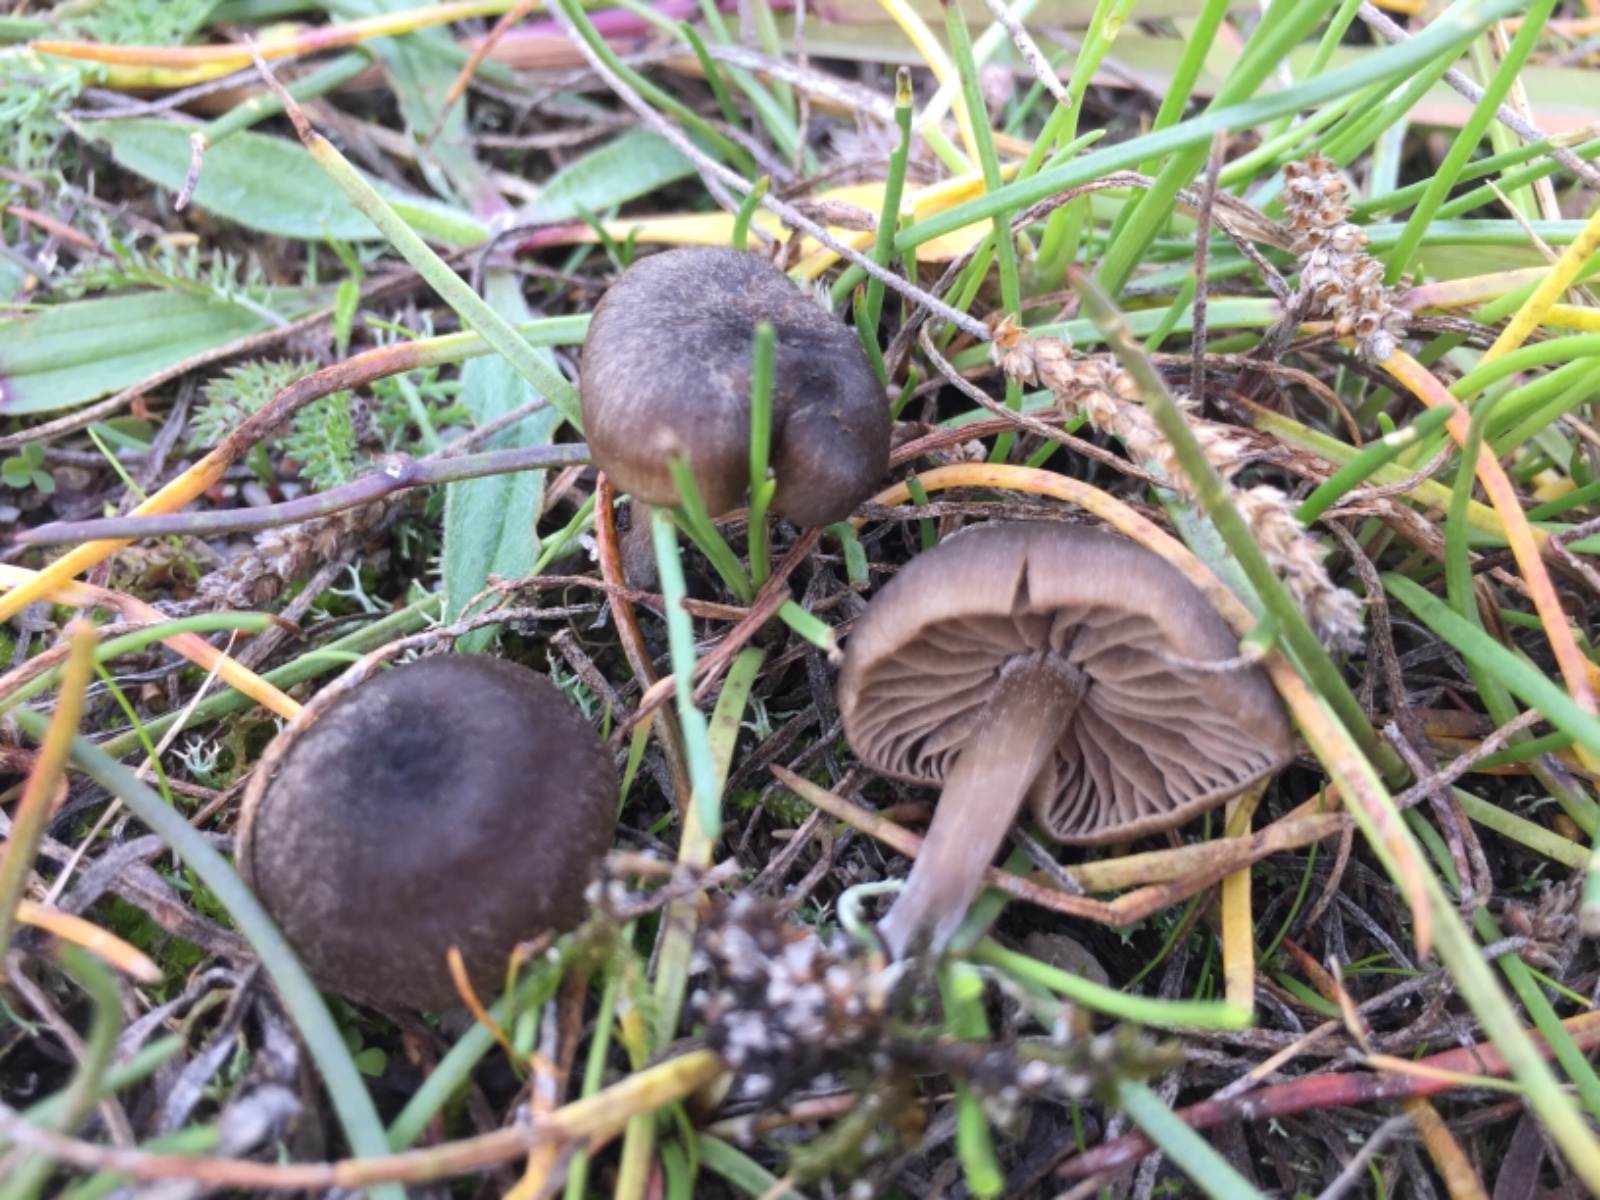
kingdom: Fungi
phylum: Basidiomycota
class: Agaricomycetes
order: Agaricales
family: Entolomataceae
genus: Entoloma
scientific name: Entoloma
